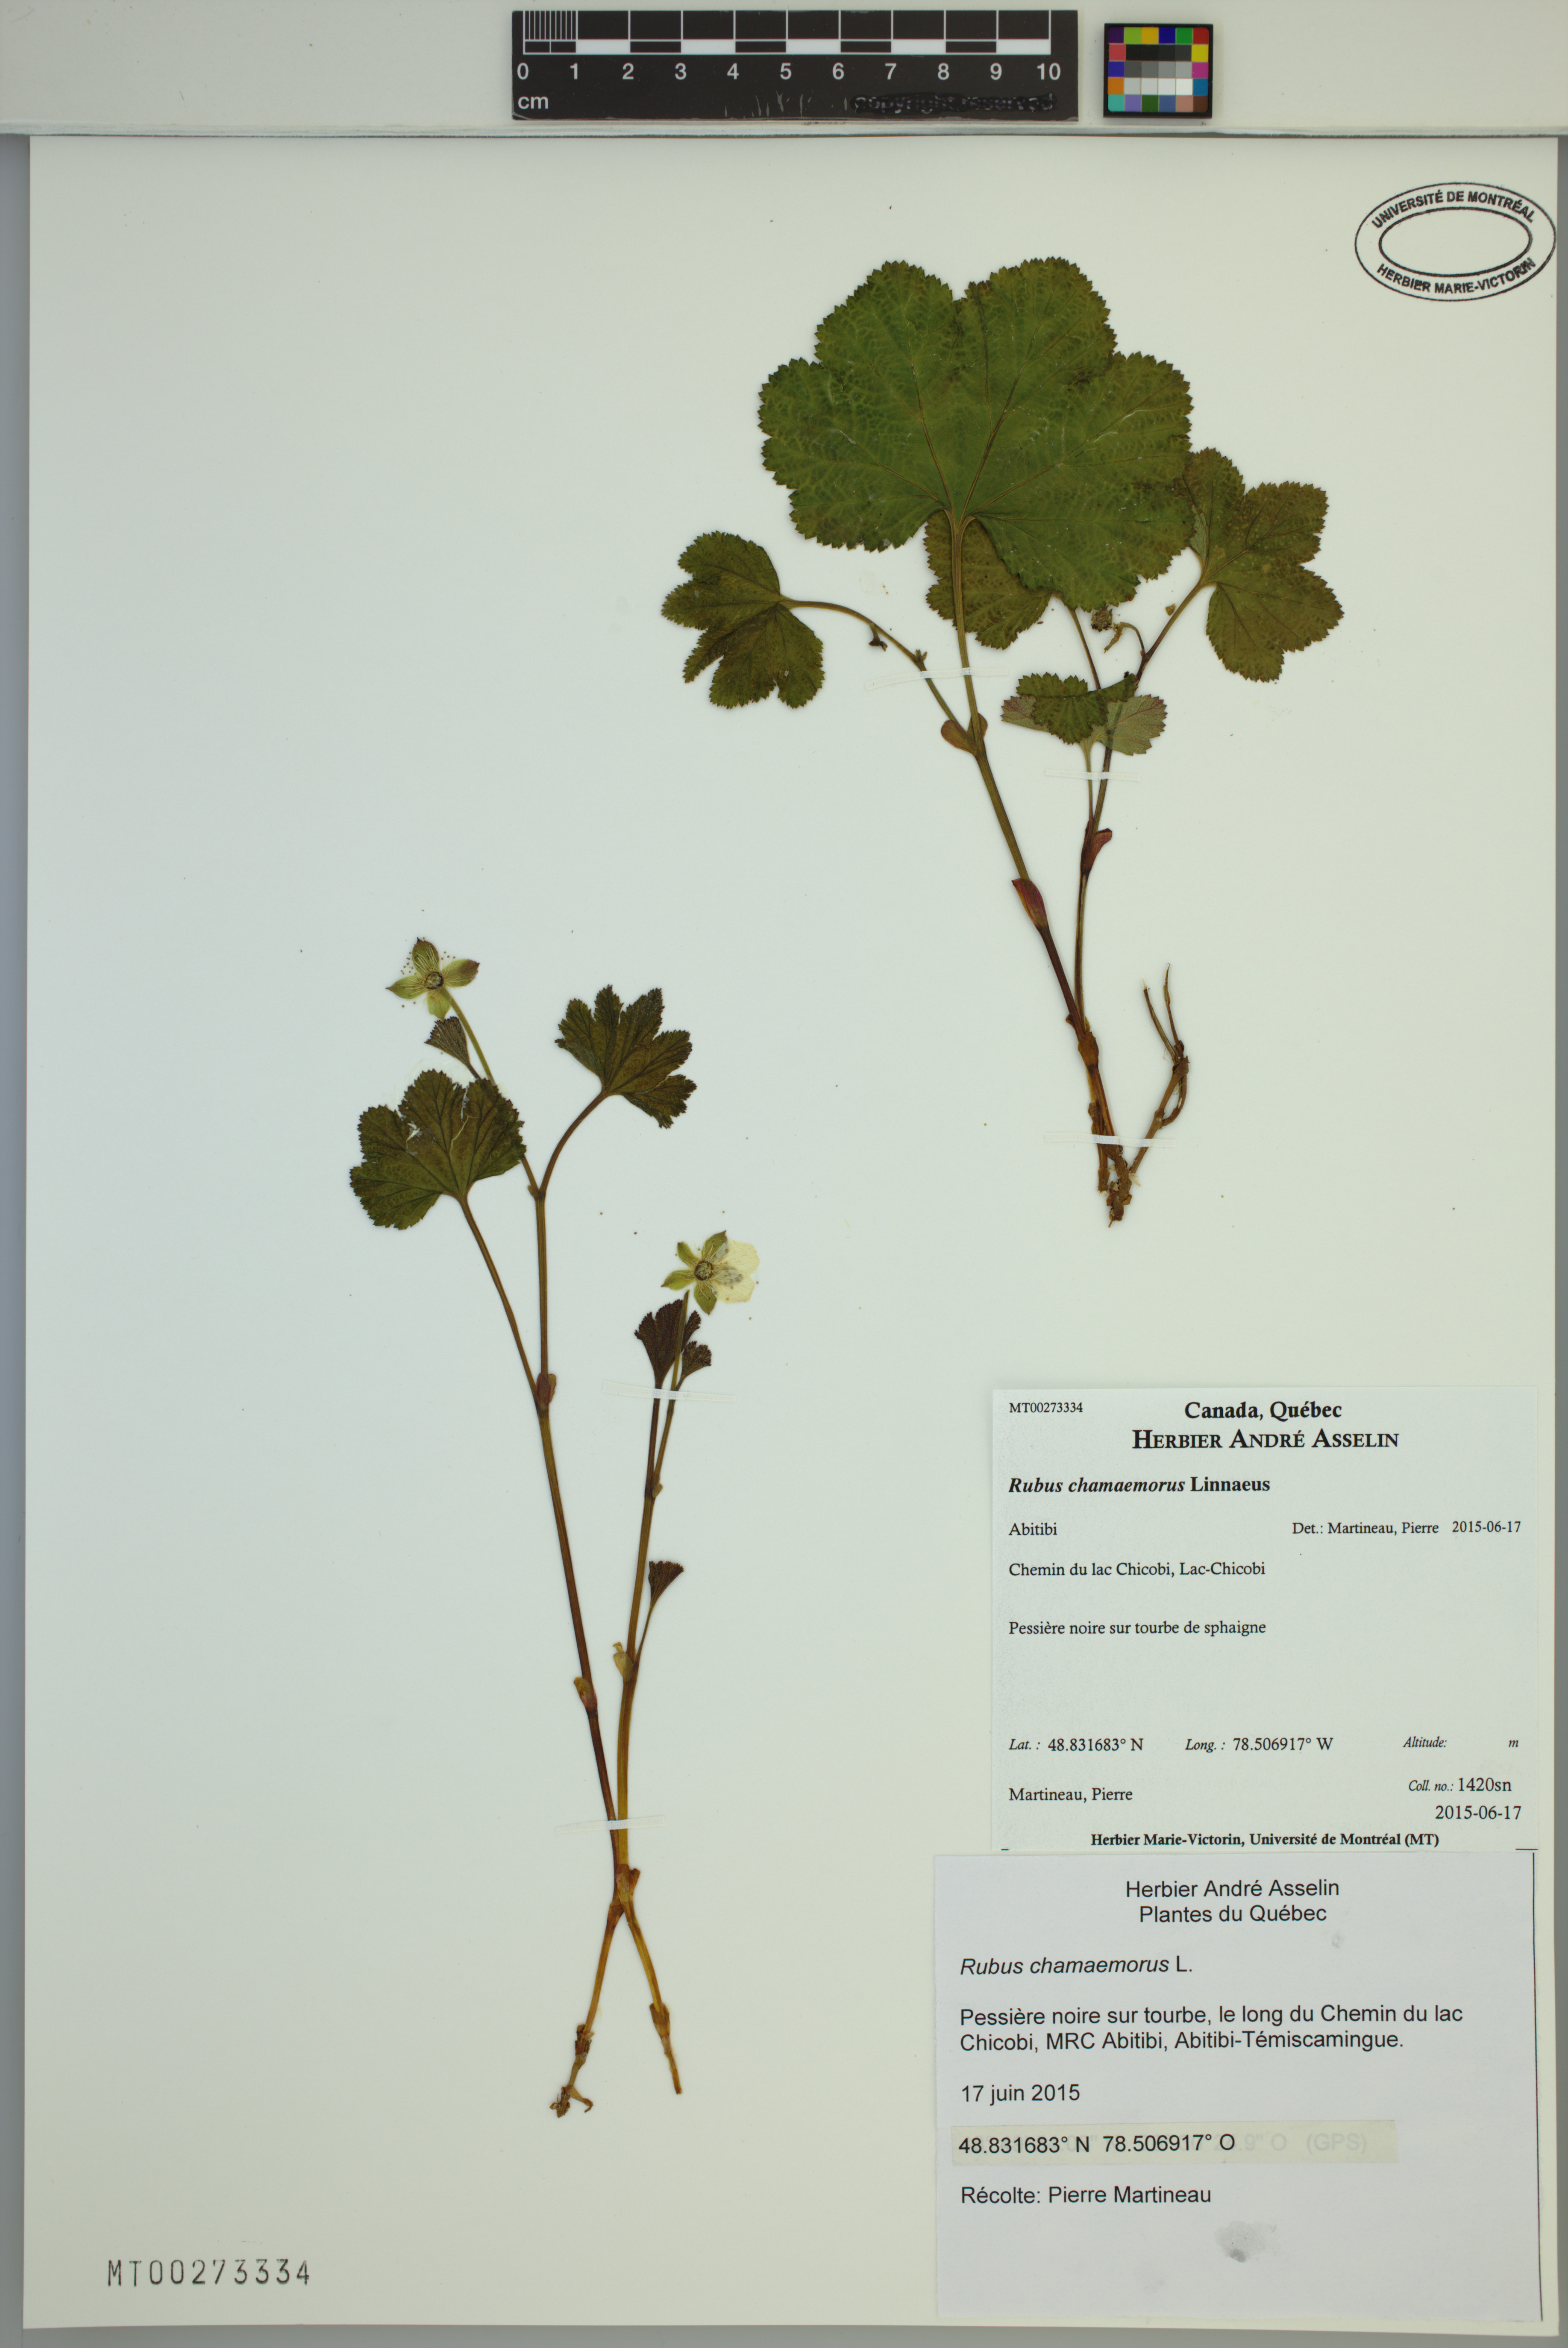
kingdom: Plantae
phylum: Tracheophyta
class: Magnoliopsida
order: Rosales
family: Rosaceae
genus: Rubus
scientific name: Rubus chamaemorus
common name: Cloudberry
